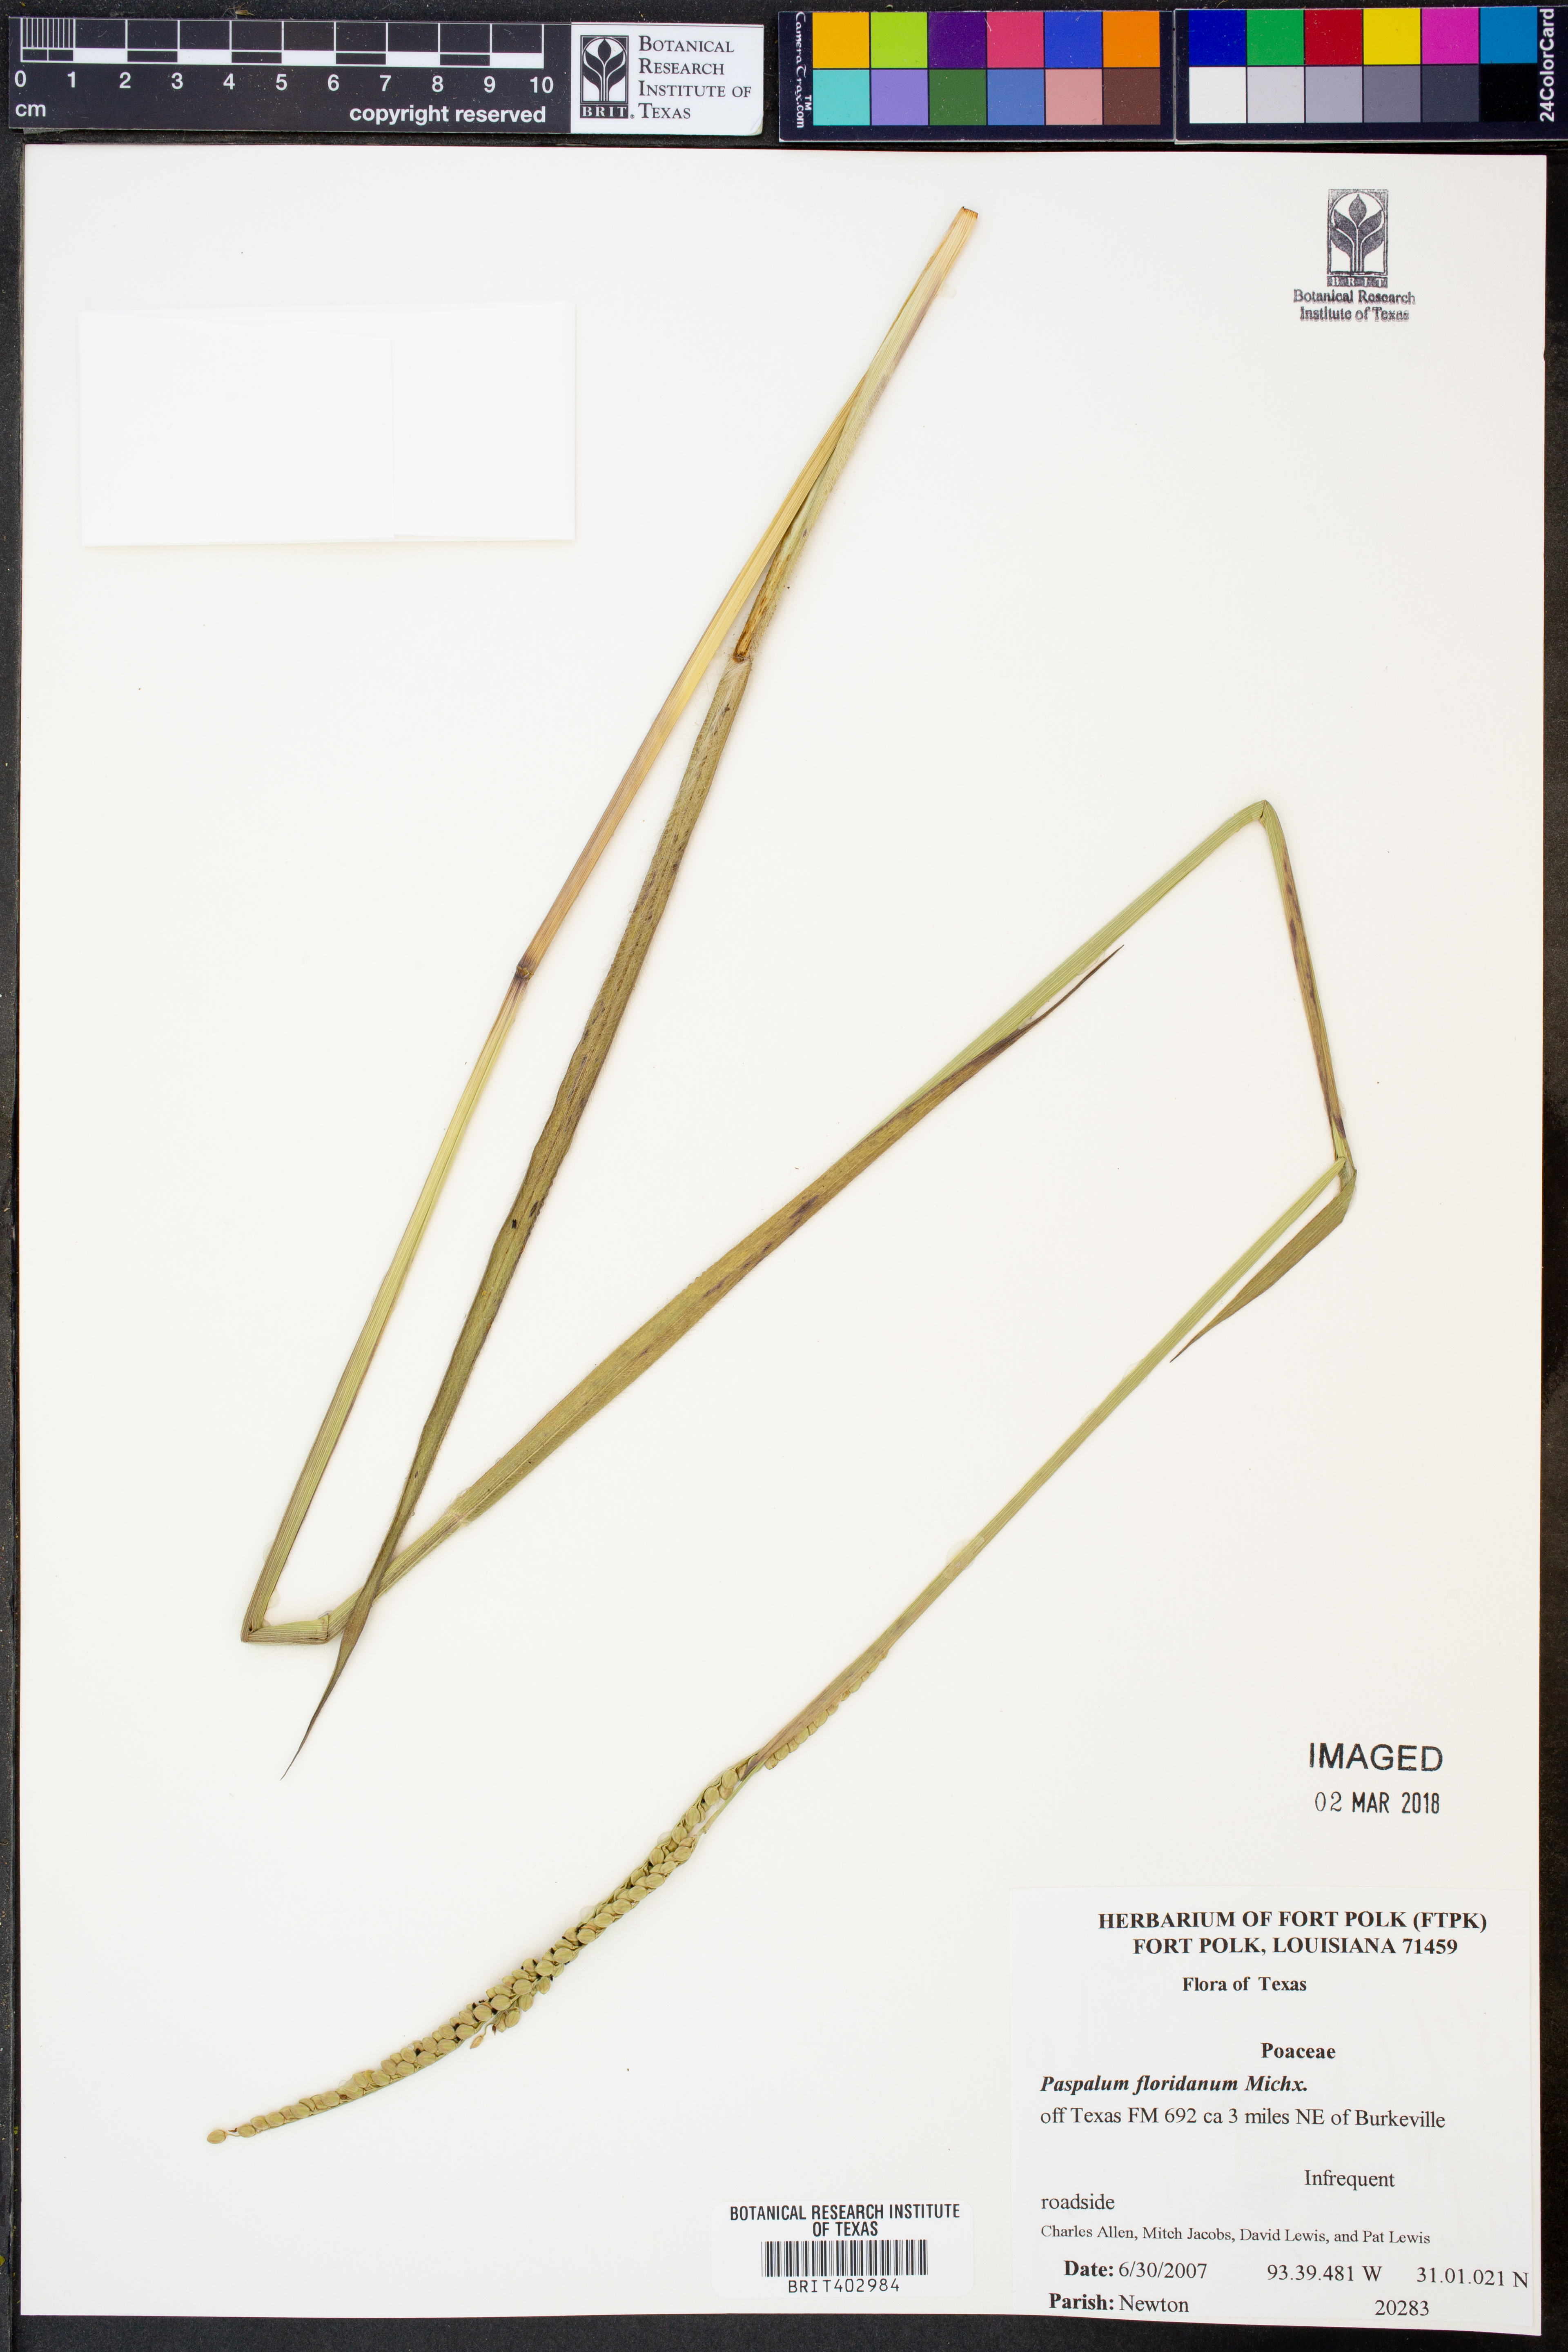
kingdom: Plantae
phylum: Tracheophyta
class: Liliopsida
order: Poales
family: Poaceae
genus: Paspalum
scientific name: Paspalum floridanum
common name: Florida paspalum
